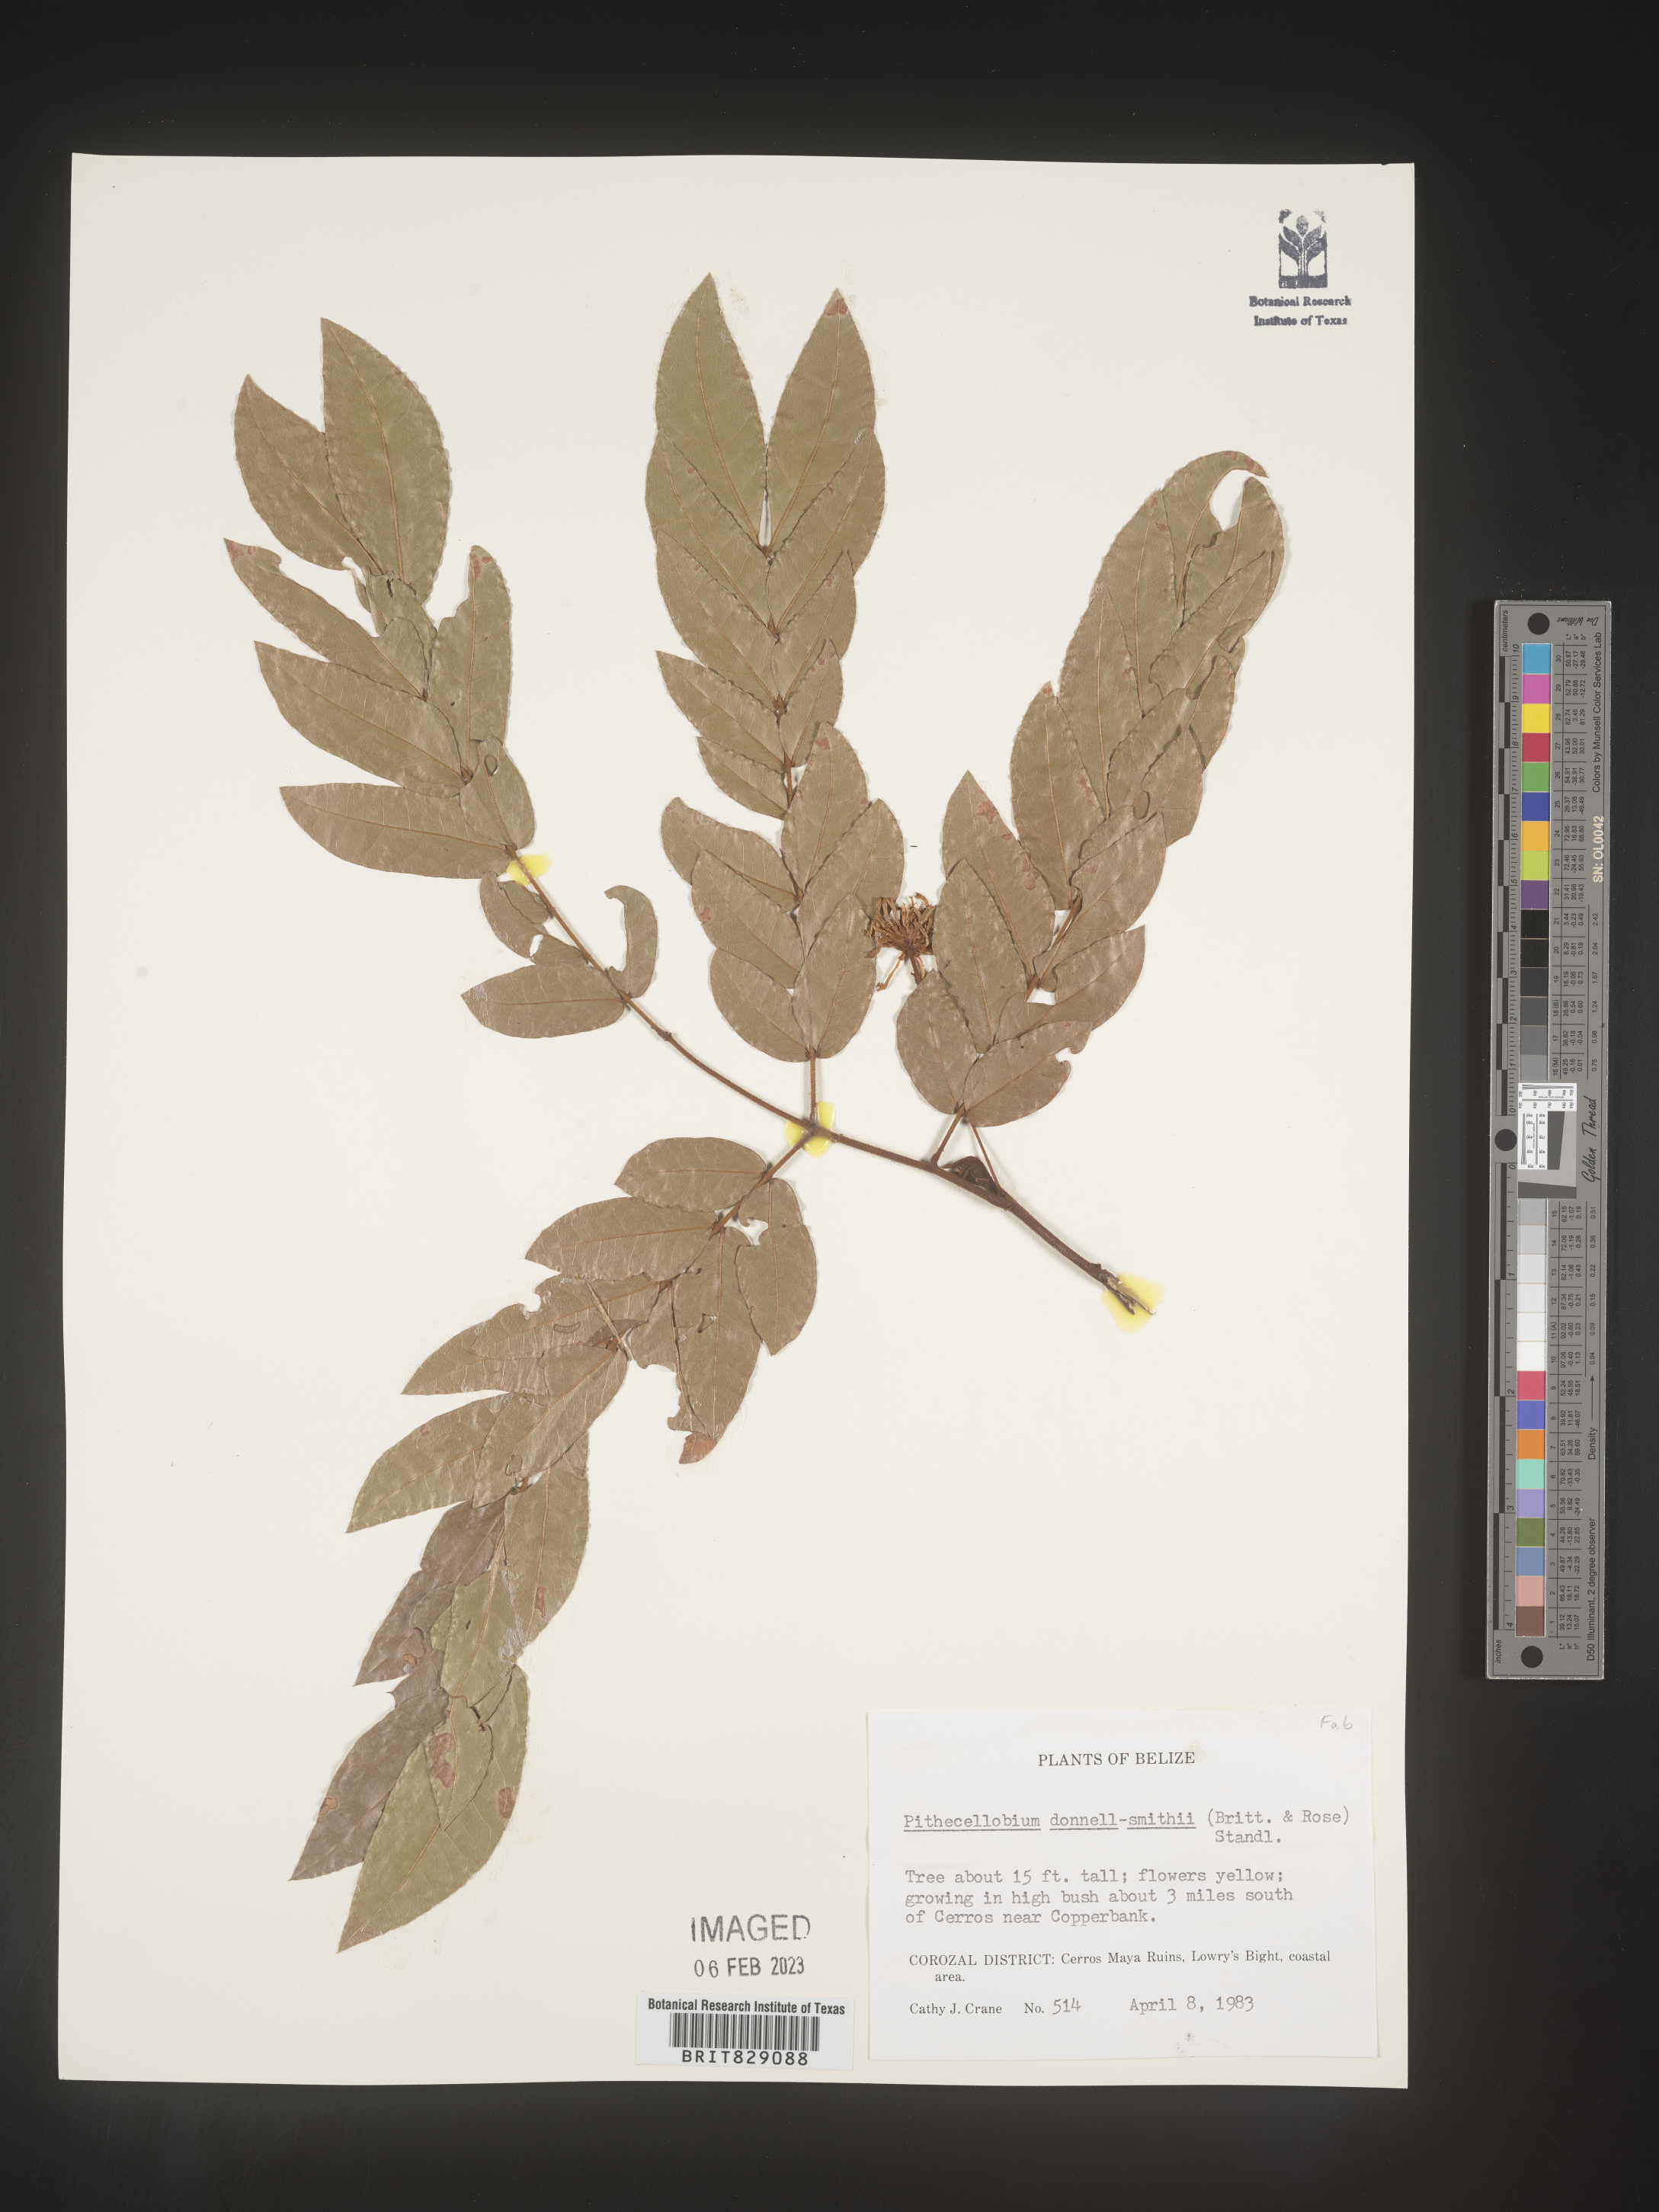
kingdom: Plantae
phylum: Tracheophyta
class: Magnoliopsida
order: Fabales
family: Fabaceae
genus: Pithecellobium
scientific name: Pithecellobium
